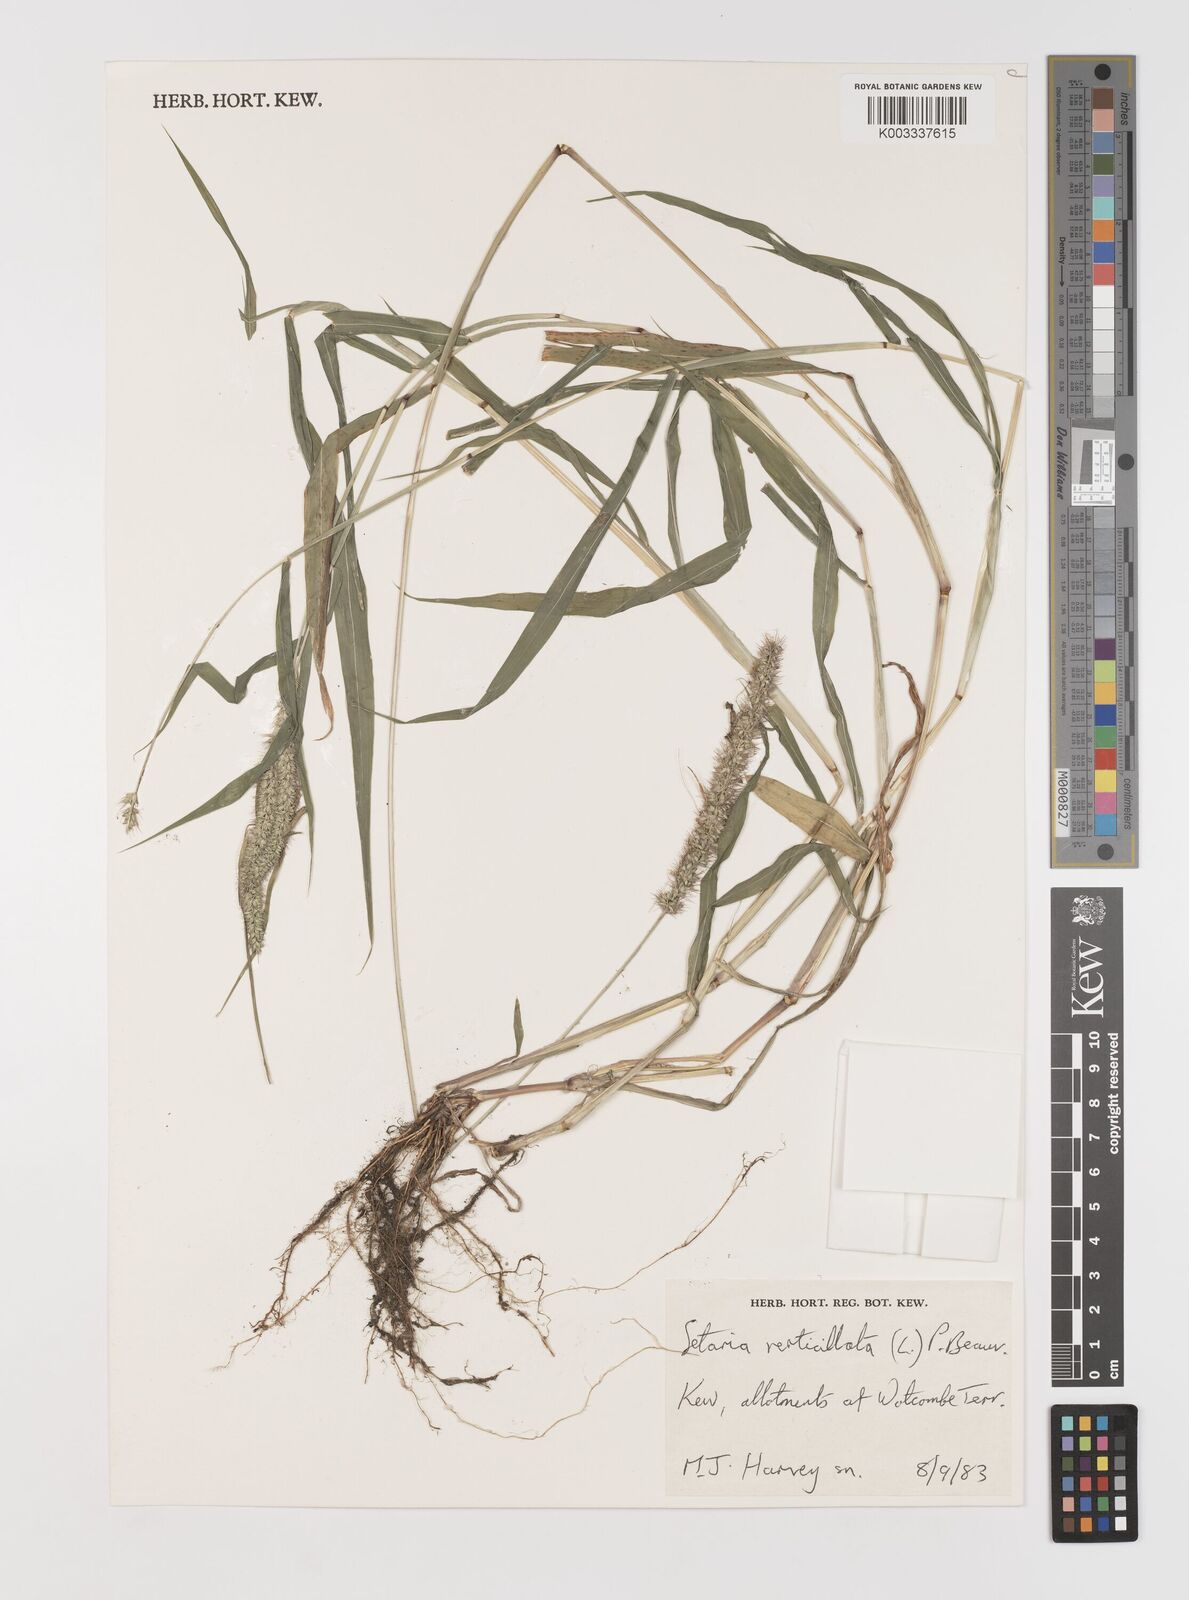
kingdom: Plantae
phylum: Tracheophyta
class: Liliopsida
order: Poales
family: Poaceae
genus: Setaria
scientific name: Setaria verticillata
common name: Hooked bristlegrass
